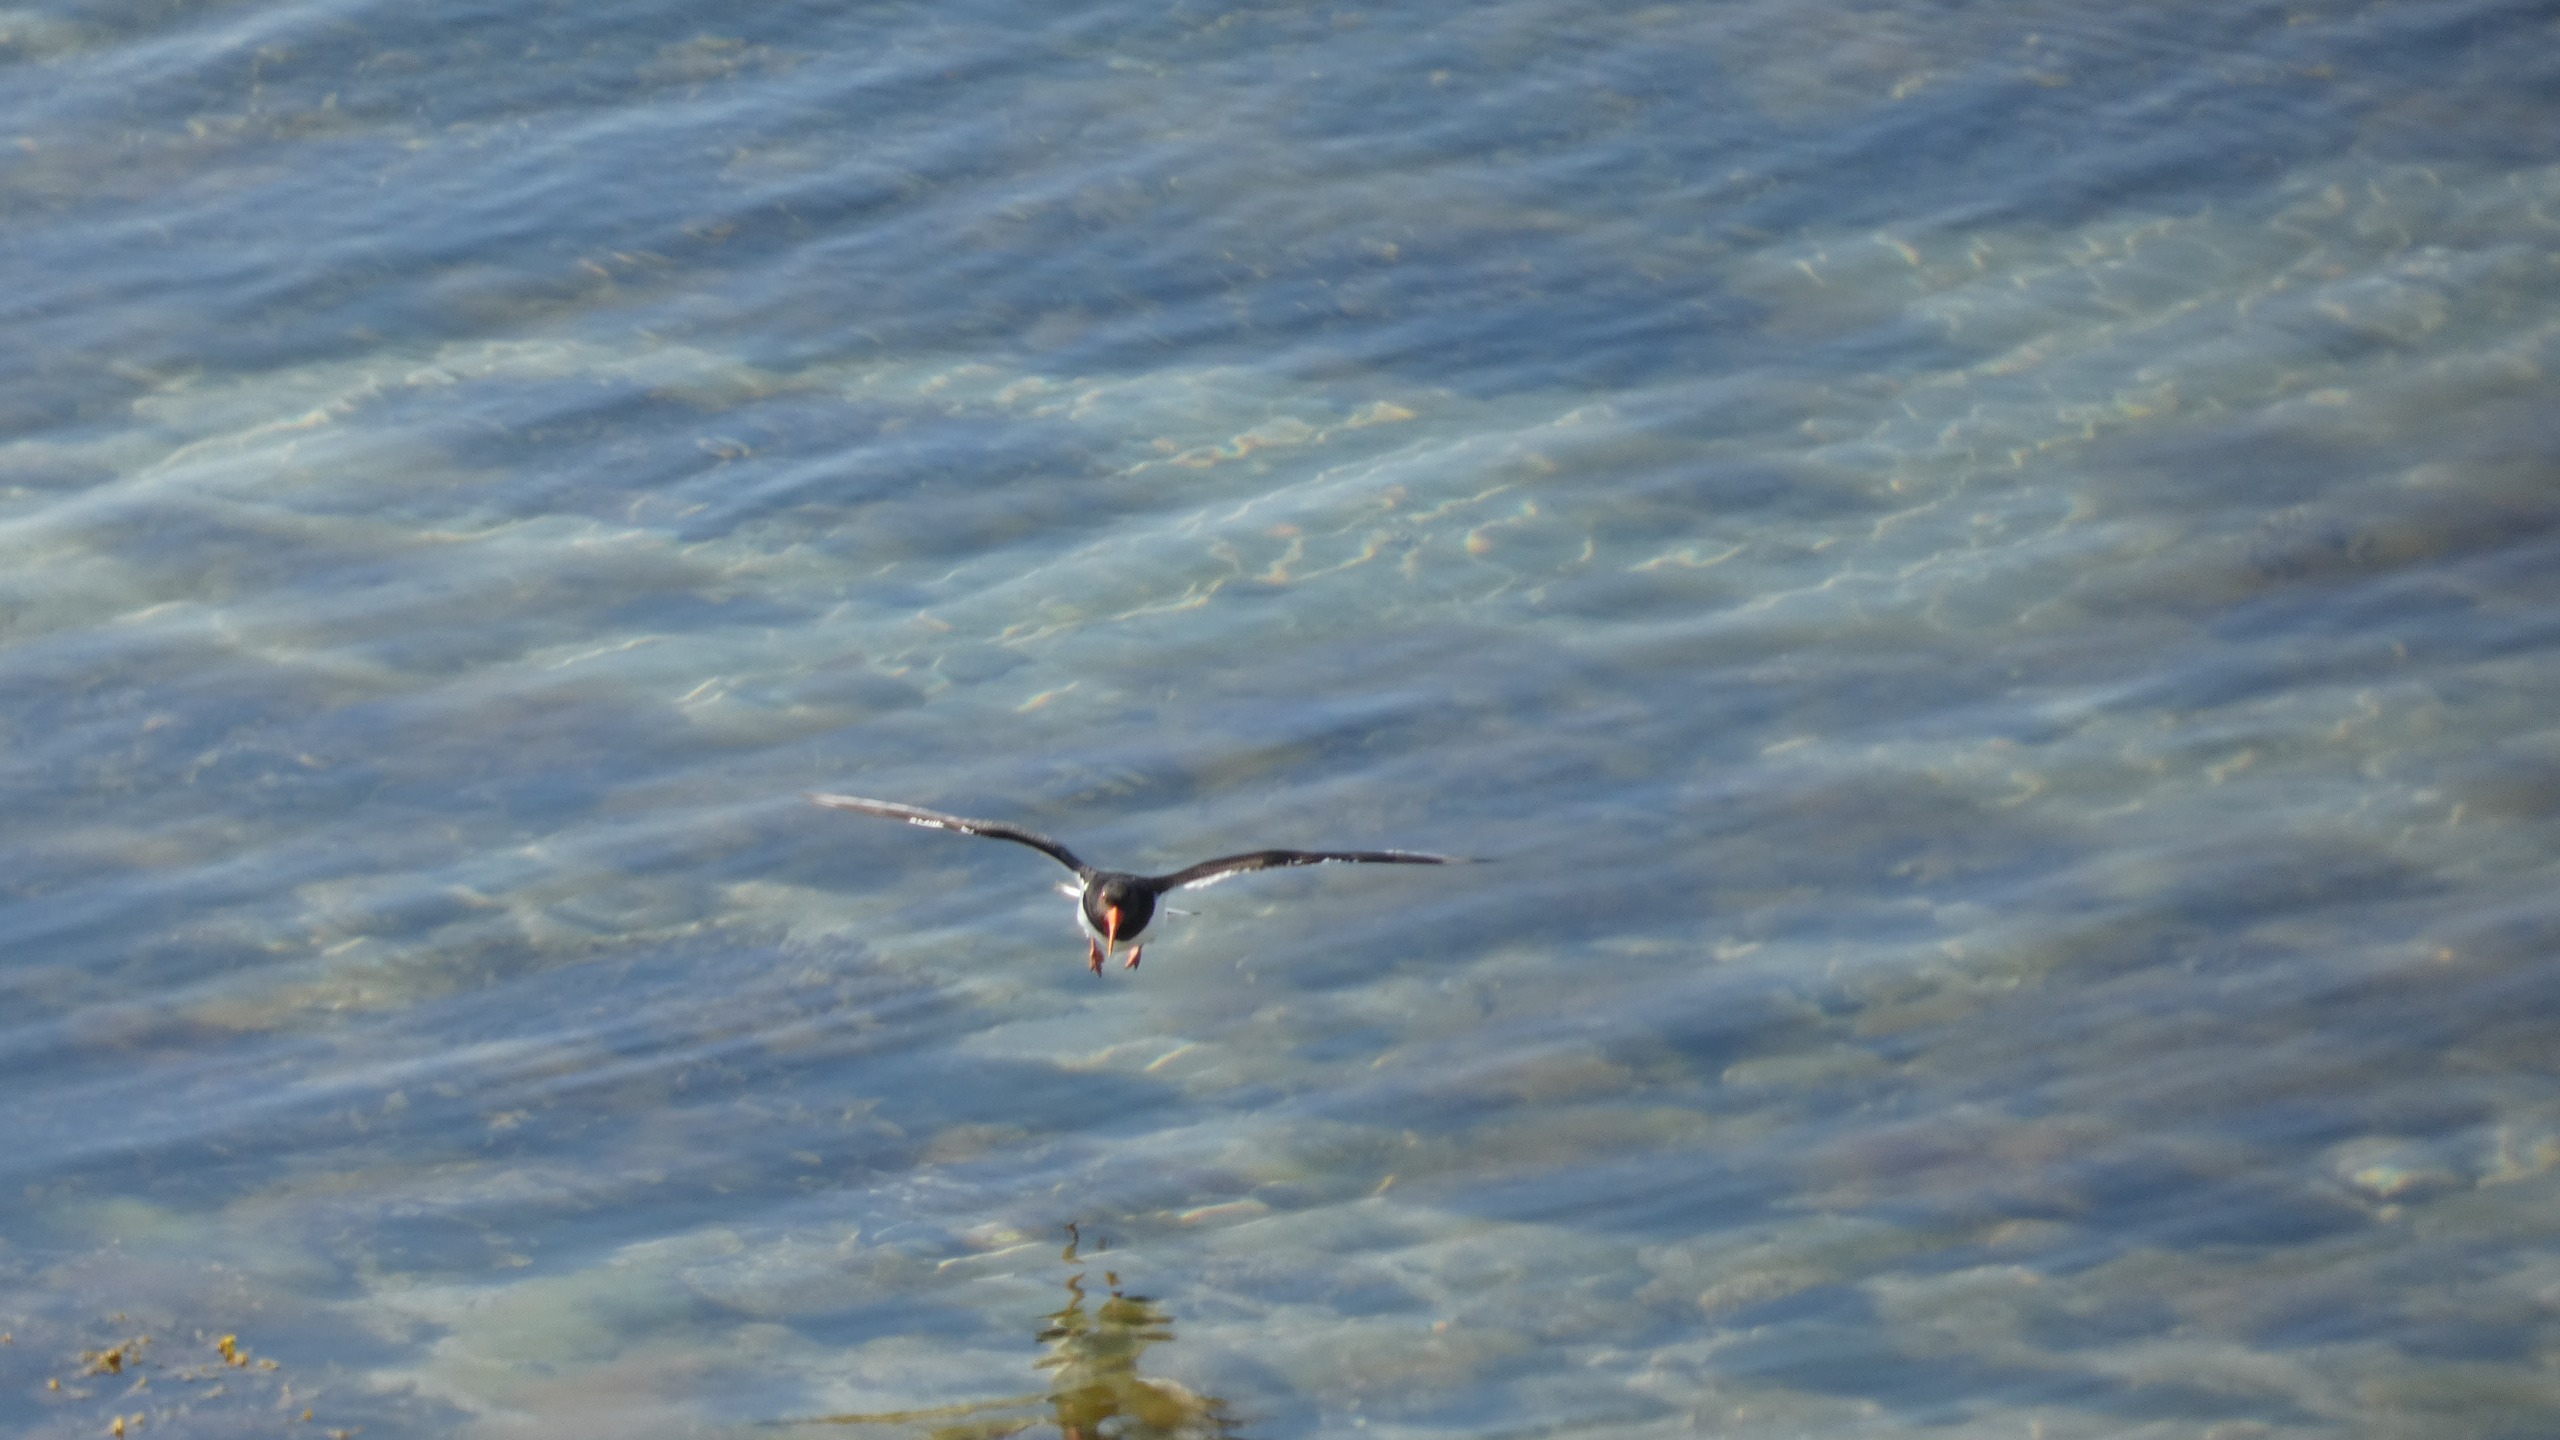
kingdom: Animalia
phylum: Chordata
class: Aves
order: Charadriiformes
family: Haematopodidae
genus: Haematopus
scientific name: Haematopus ostralegus
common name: Strandskade
